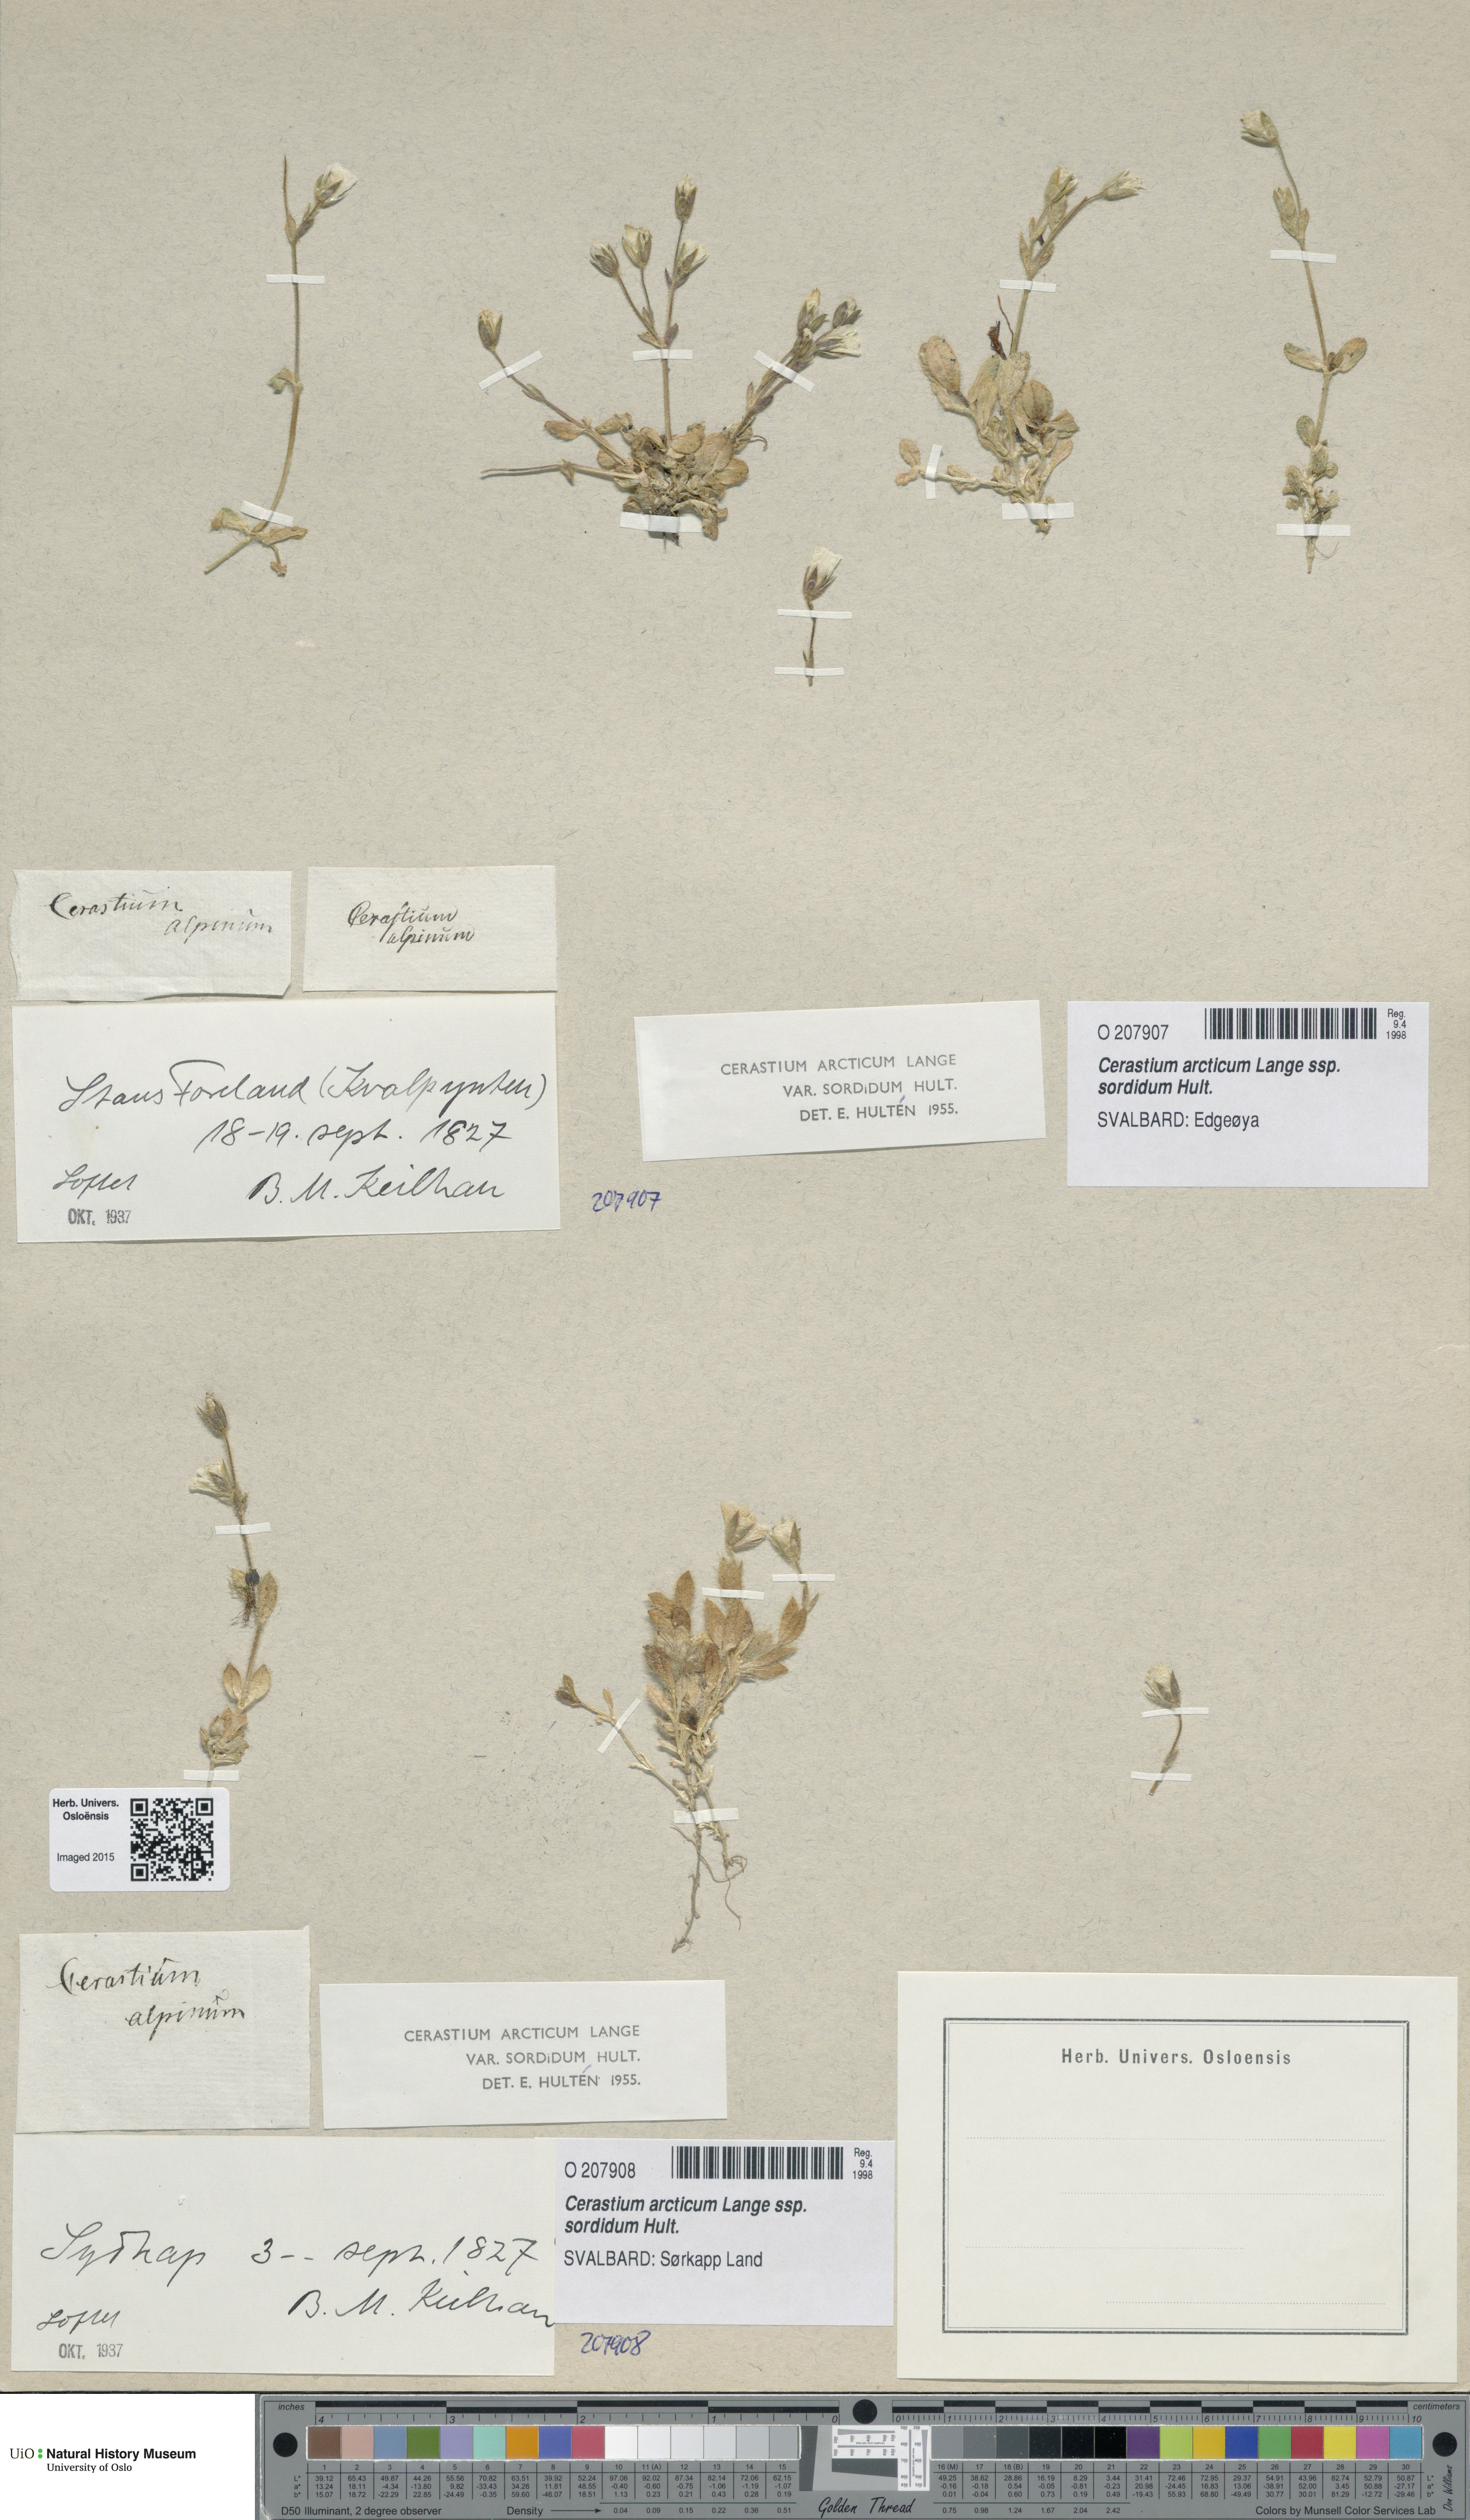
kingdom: Plantae
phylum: Tracheophyta
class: Magnoliopsida
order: Caryophyllales
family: Caryophyllaceae
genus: Cerastium
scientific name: Cerastium sordidum
